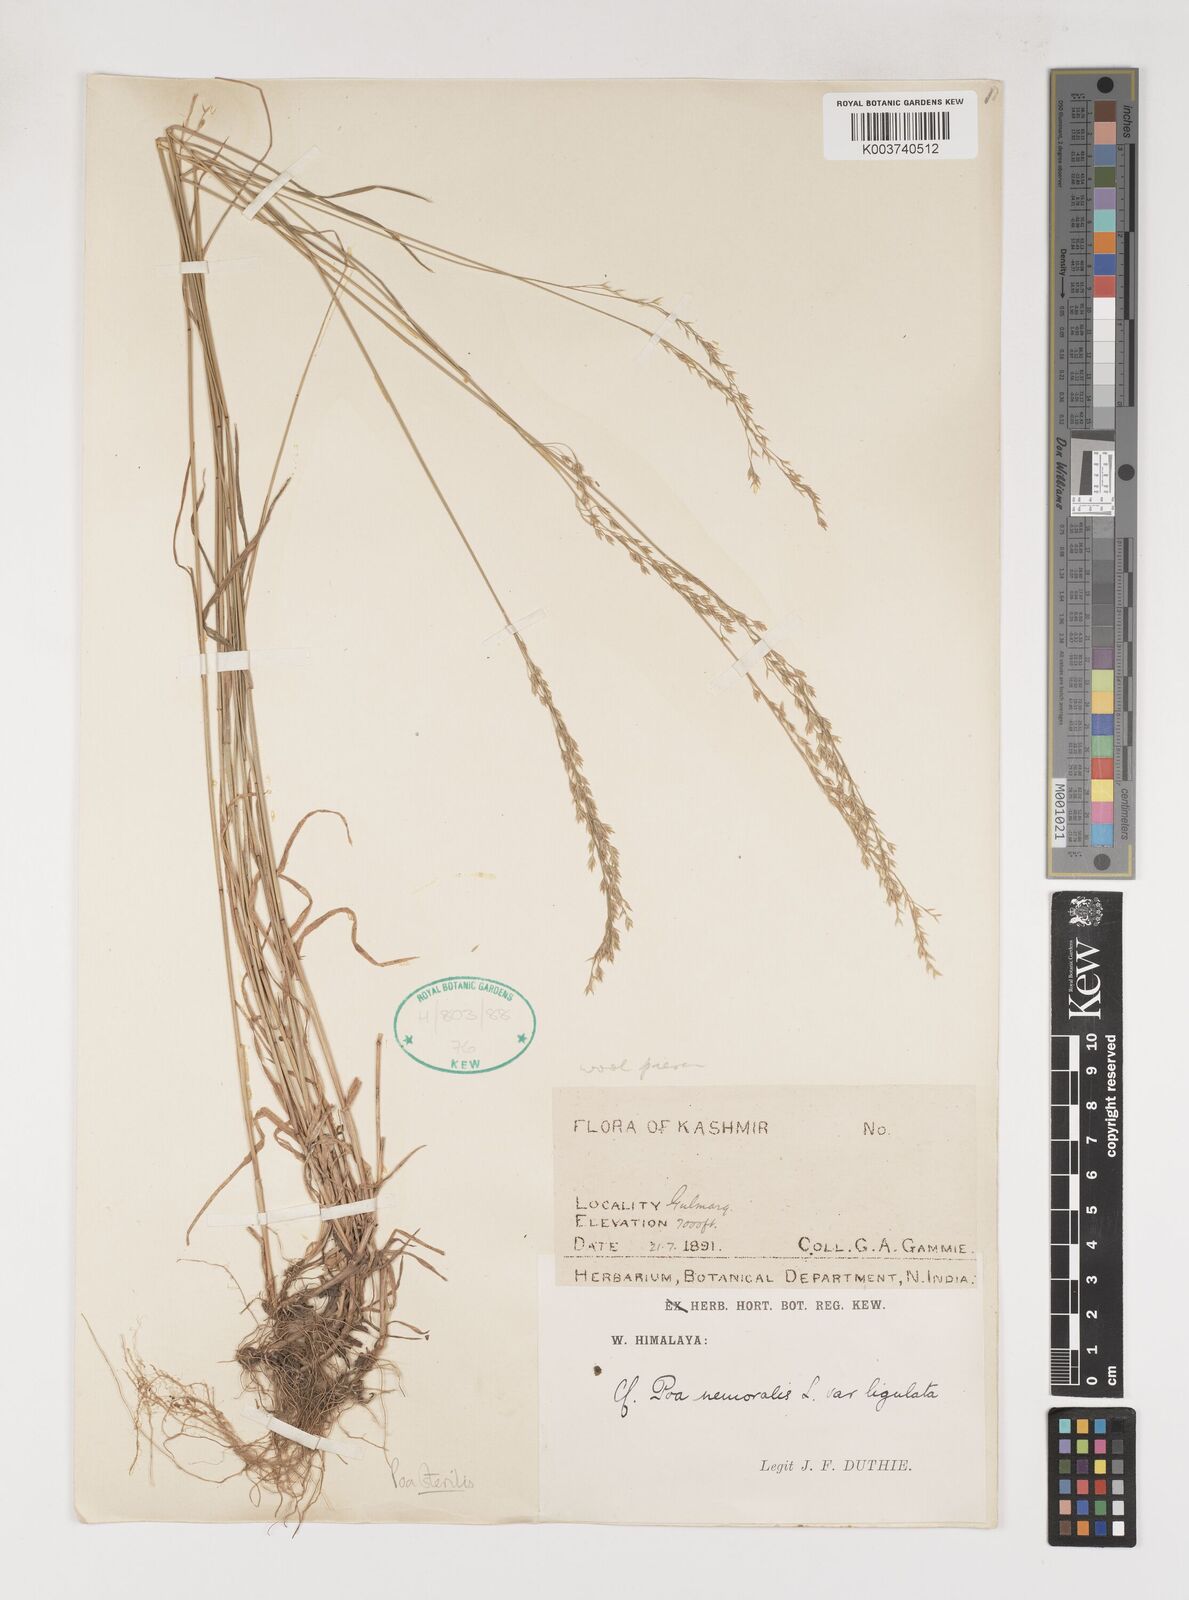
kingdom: Plantae
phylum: Tracheophyta
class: Liliopsida
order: Poales
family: Poaceae
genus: Poa
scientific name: Poa sterilis
